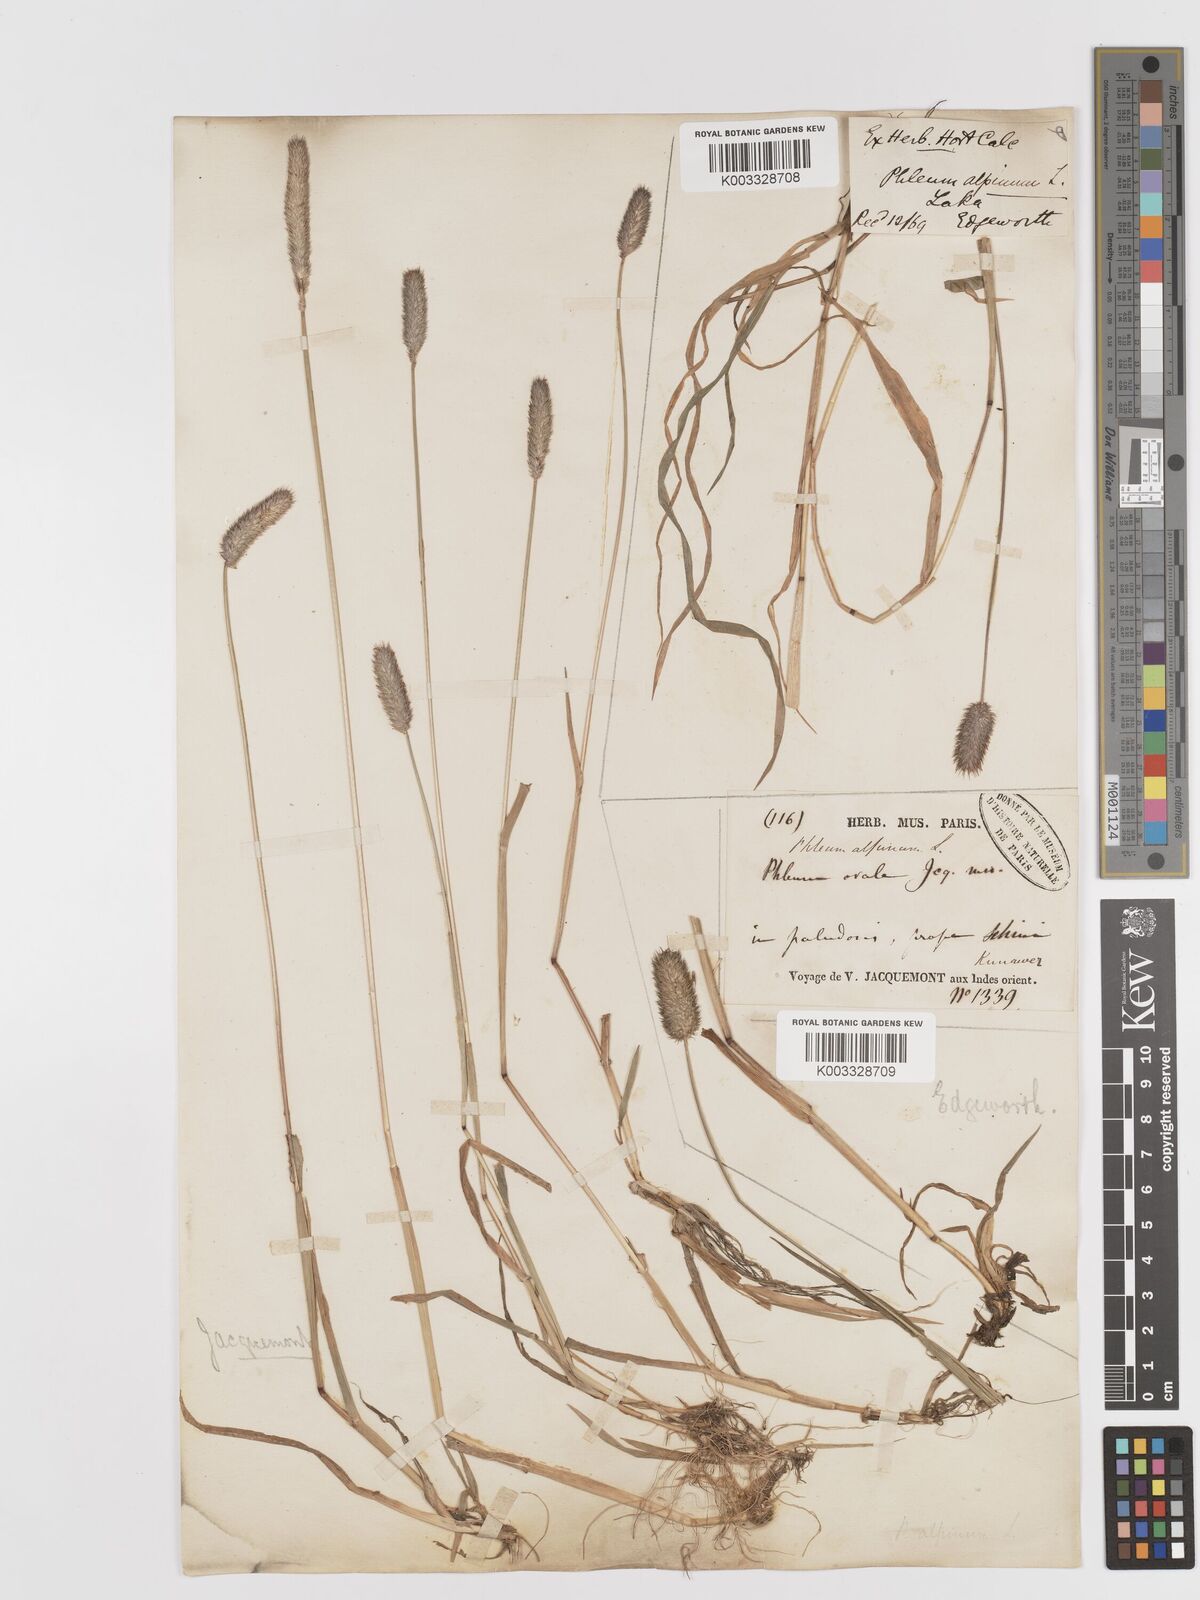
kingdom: Plantae
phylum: Tracheophyta
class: Liliopsida
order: Poales
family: Poaceae
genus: Phleum
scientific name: Phleum alpinum
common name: Alpine cat's-tail
